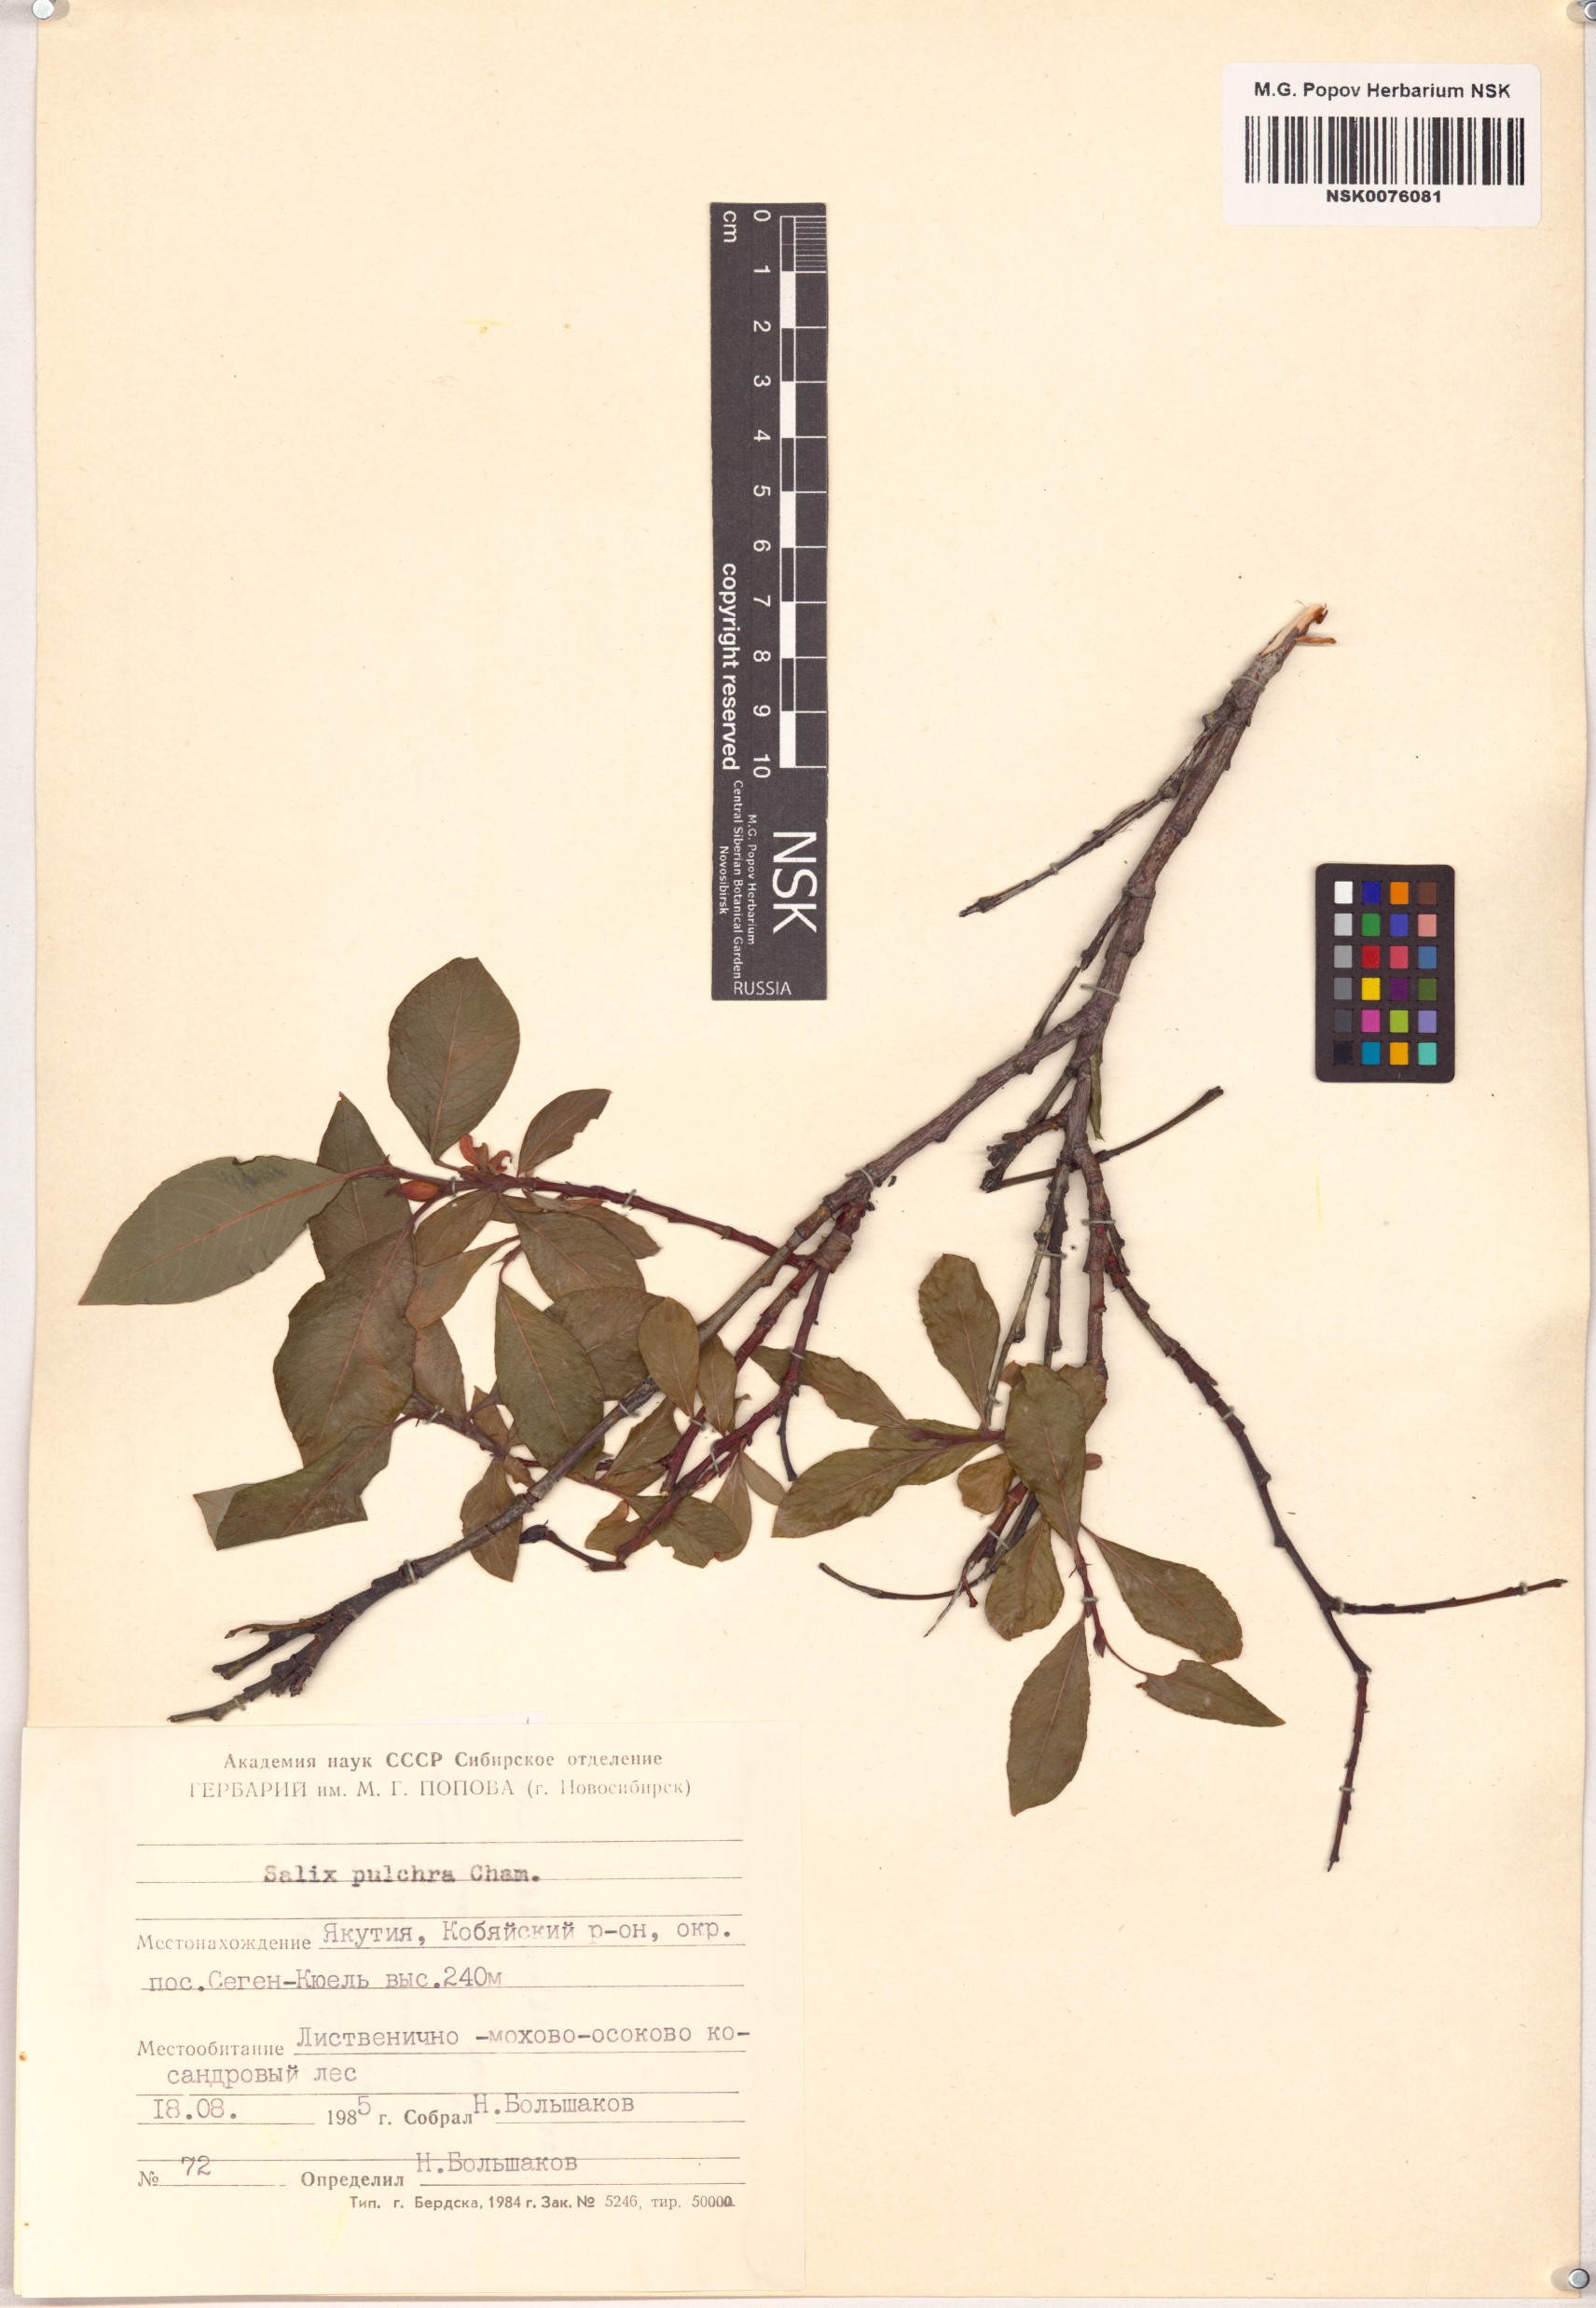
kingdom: Plantae
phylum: Tracheophyta
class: Magnoliopsida
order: Malpighiales
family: Salicaceae
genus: Salix
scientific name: Salix pulchra
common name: Diamond-leaved willow
